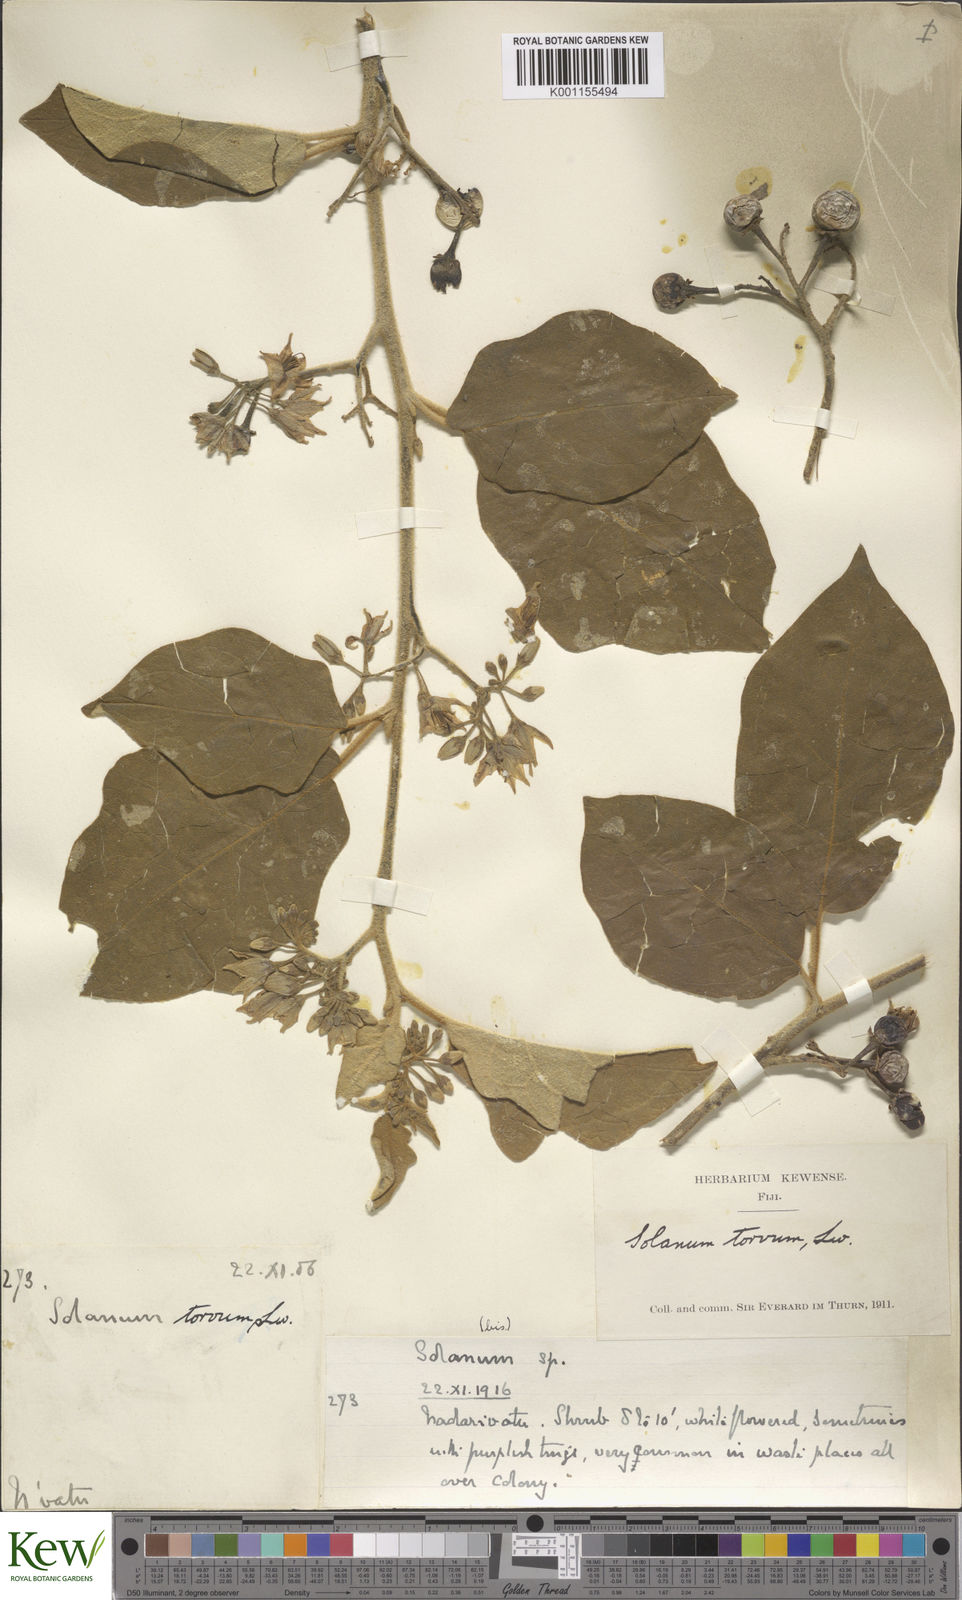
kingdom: Plantae
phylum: Tracheophyta
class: Magnoliopsida
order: Solanales
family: Solanaceae
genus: Solanum
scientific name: Solanum torvum
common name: Turkey berry
